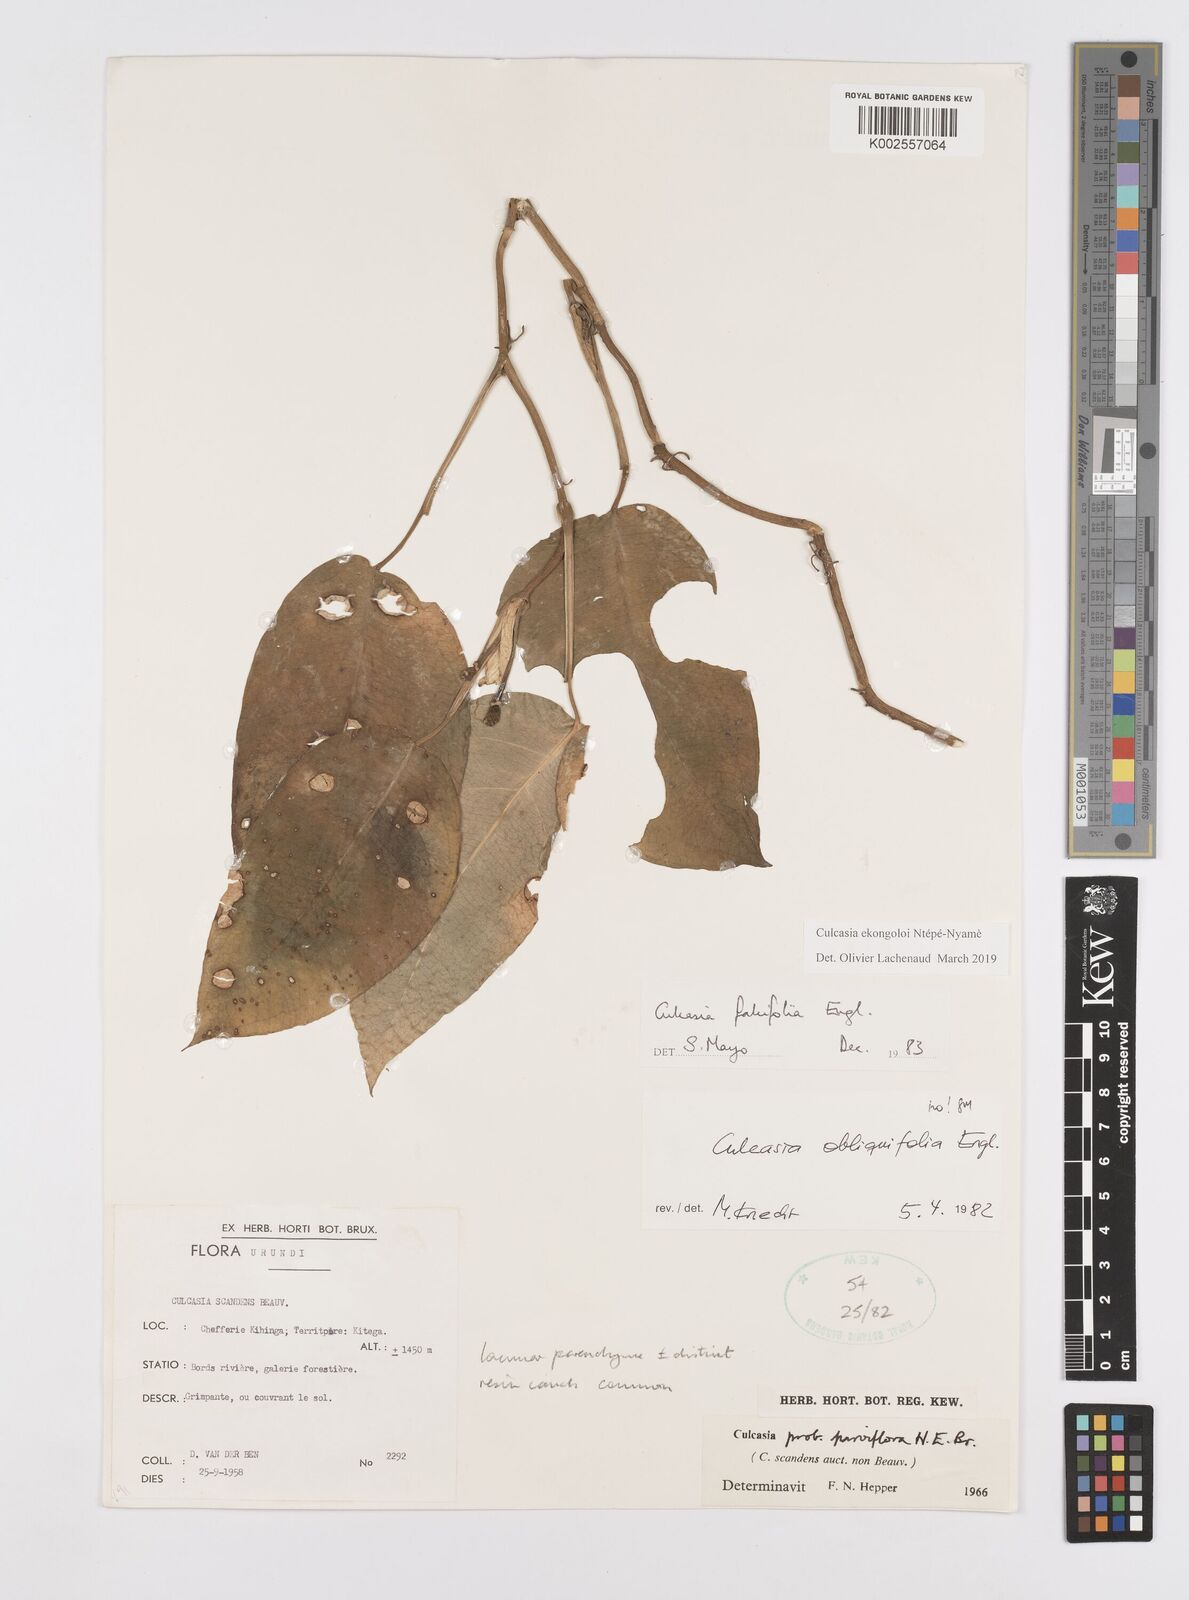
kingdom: Plantae
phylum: Tracheophyta
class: Liliopsida
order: Alismatales
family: Araceae
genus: Culcasia
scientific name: Culcasia ekongoloi
